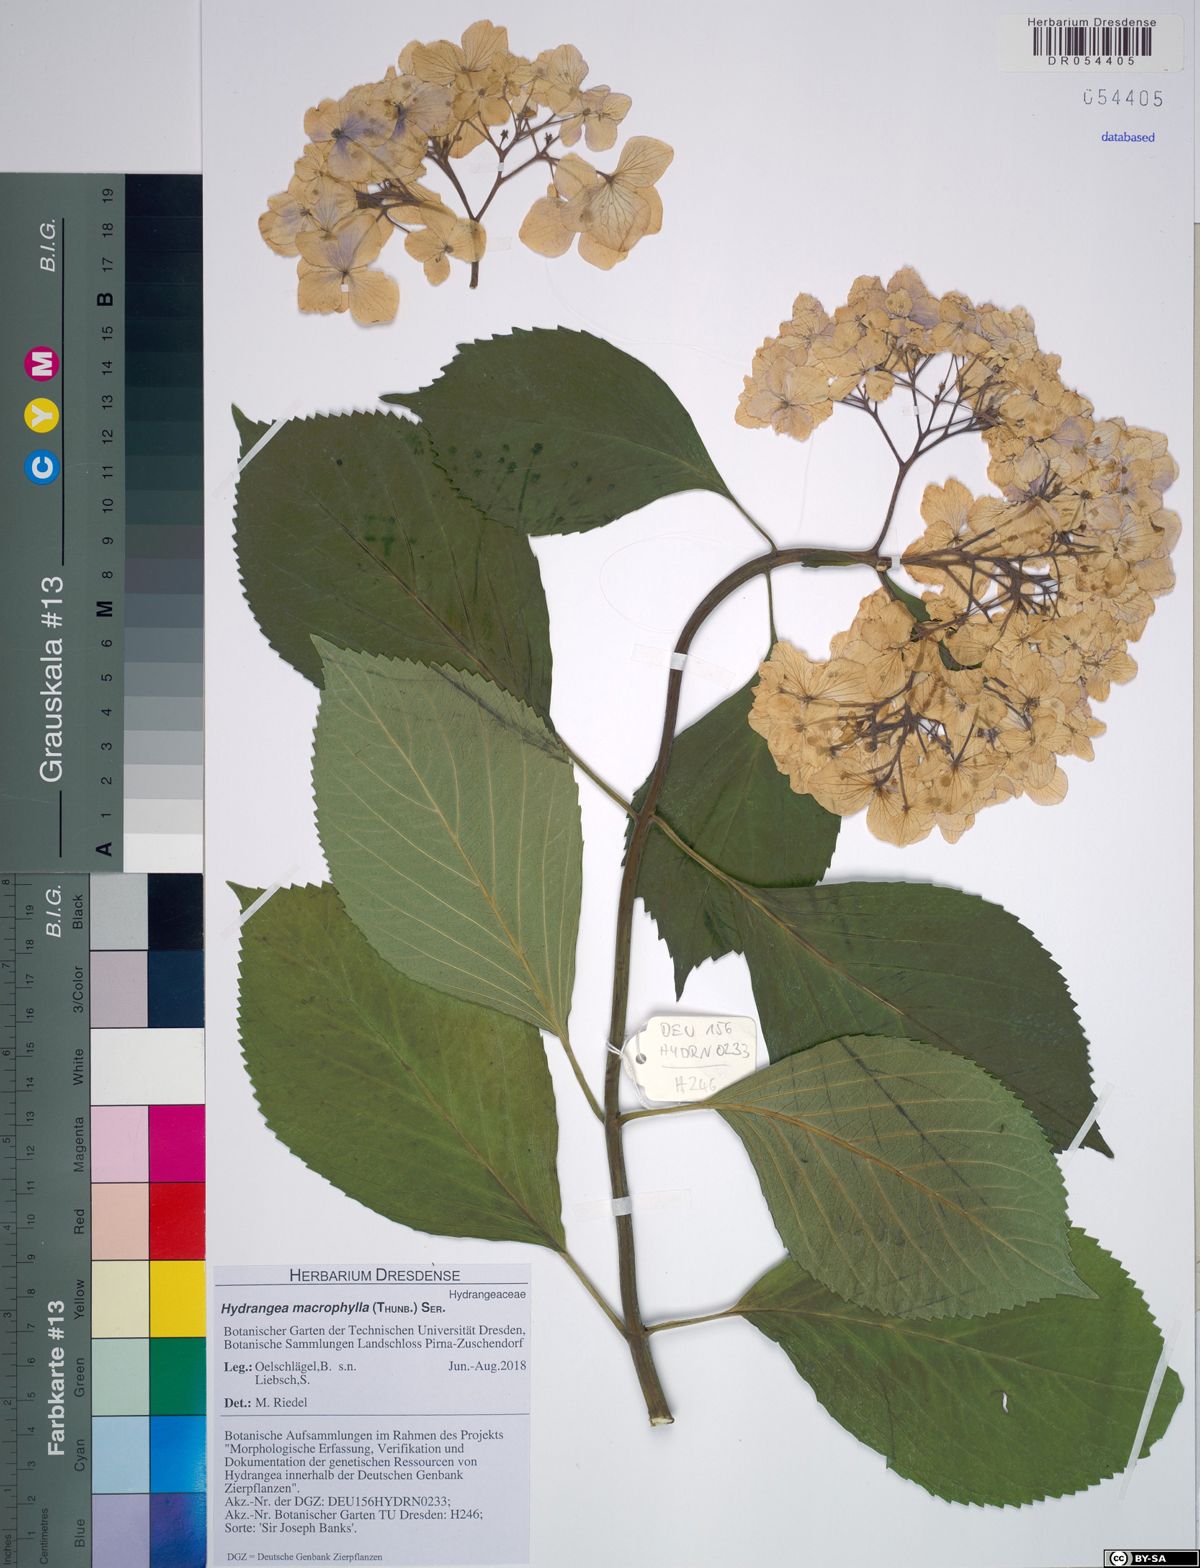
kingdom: Plantae
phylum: Tracheophyta
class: Magnoliopsida
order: Cornales
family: Hydrangeaceae
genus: Hydrangea
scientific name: Hydrangea macrophylla
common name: Hydrangea
